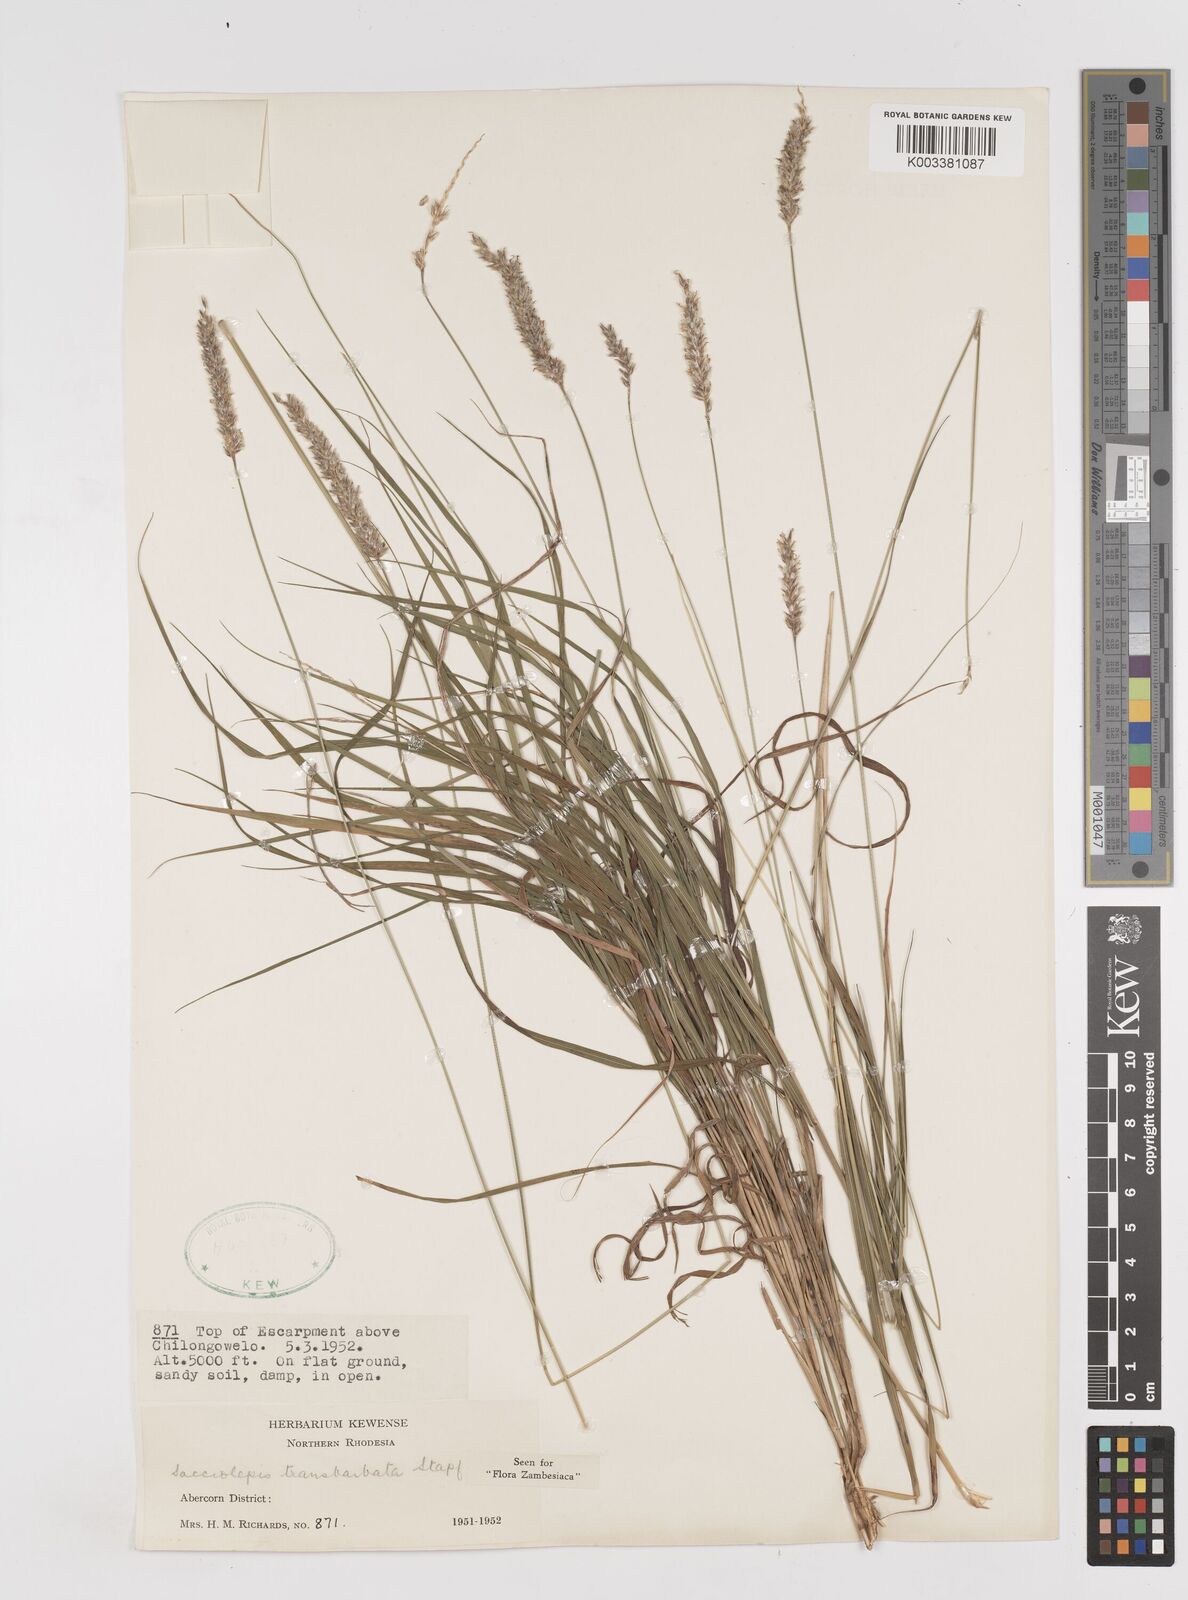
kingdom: Plantae
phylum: Tracheophyta
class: Liliopsida
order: Poales
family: Poaceae
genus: Sacciolepis
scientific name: Sacciolepis transbarbata
